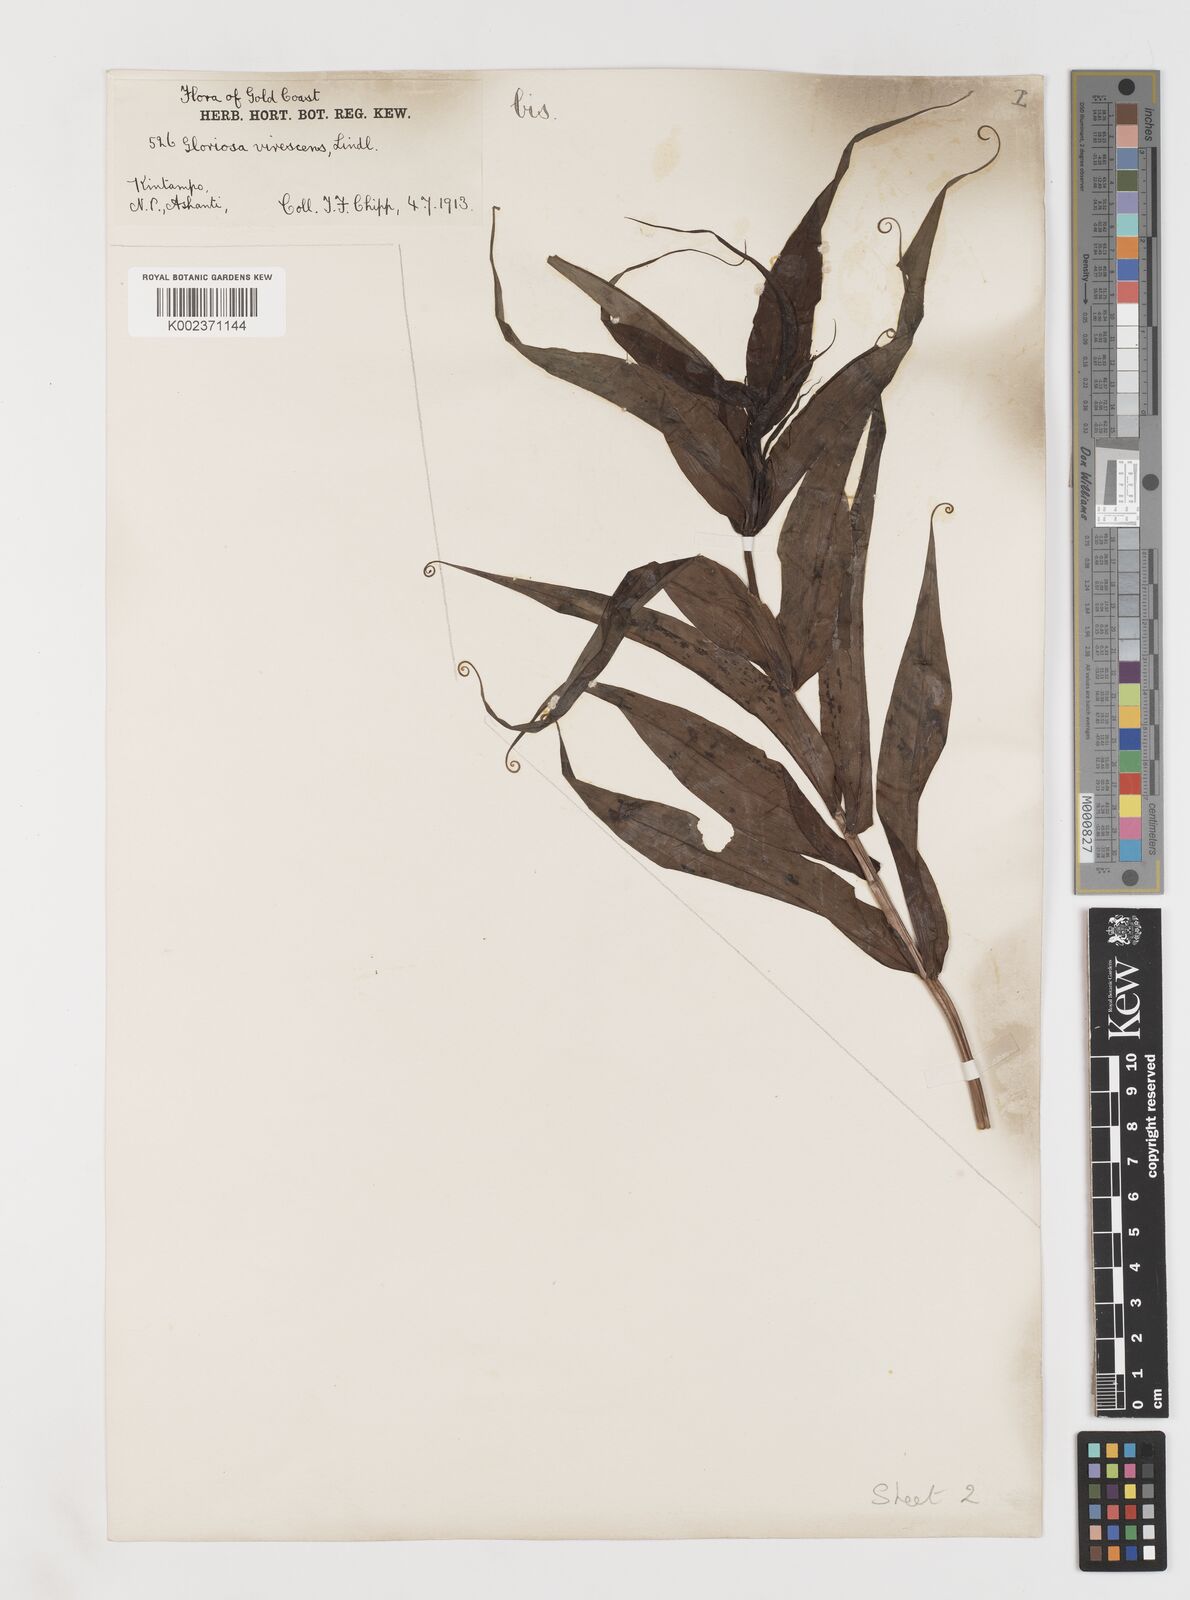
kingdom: Plantae
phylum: Tracheophyta
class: Liliopsida
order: Liliales
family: Colchicaceae
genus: Gloriosa
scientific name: Gloriosa simplex
